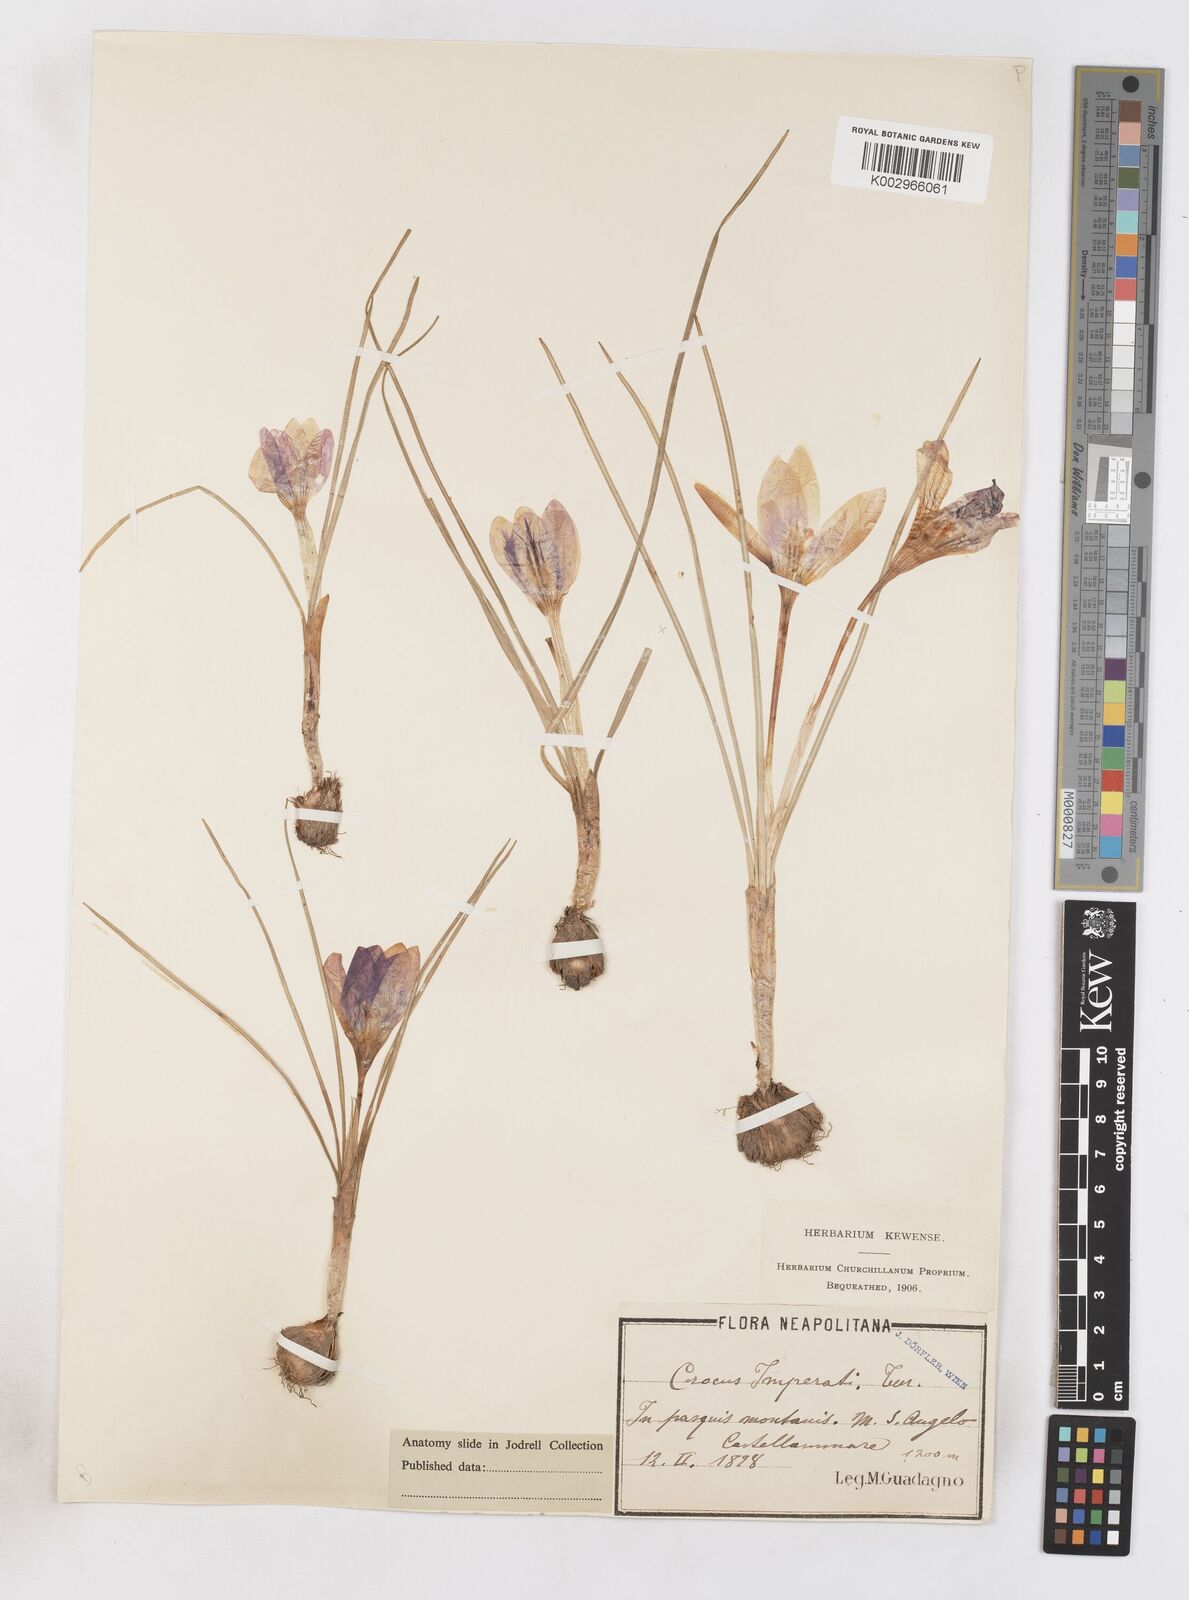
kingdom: Plantae
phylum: Tracheophyta
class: Liliopsida
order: Asparagales
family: Iridaceae
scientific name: Iridaceae
